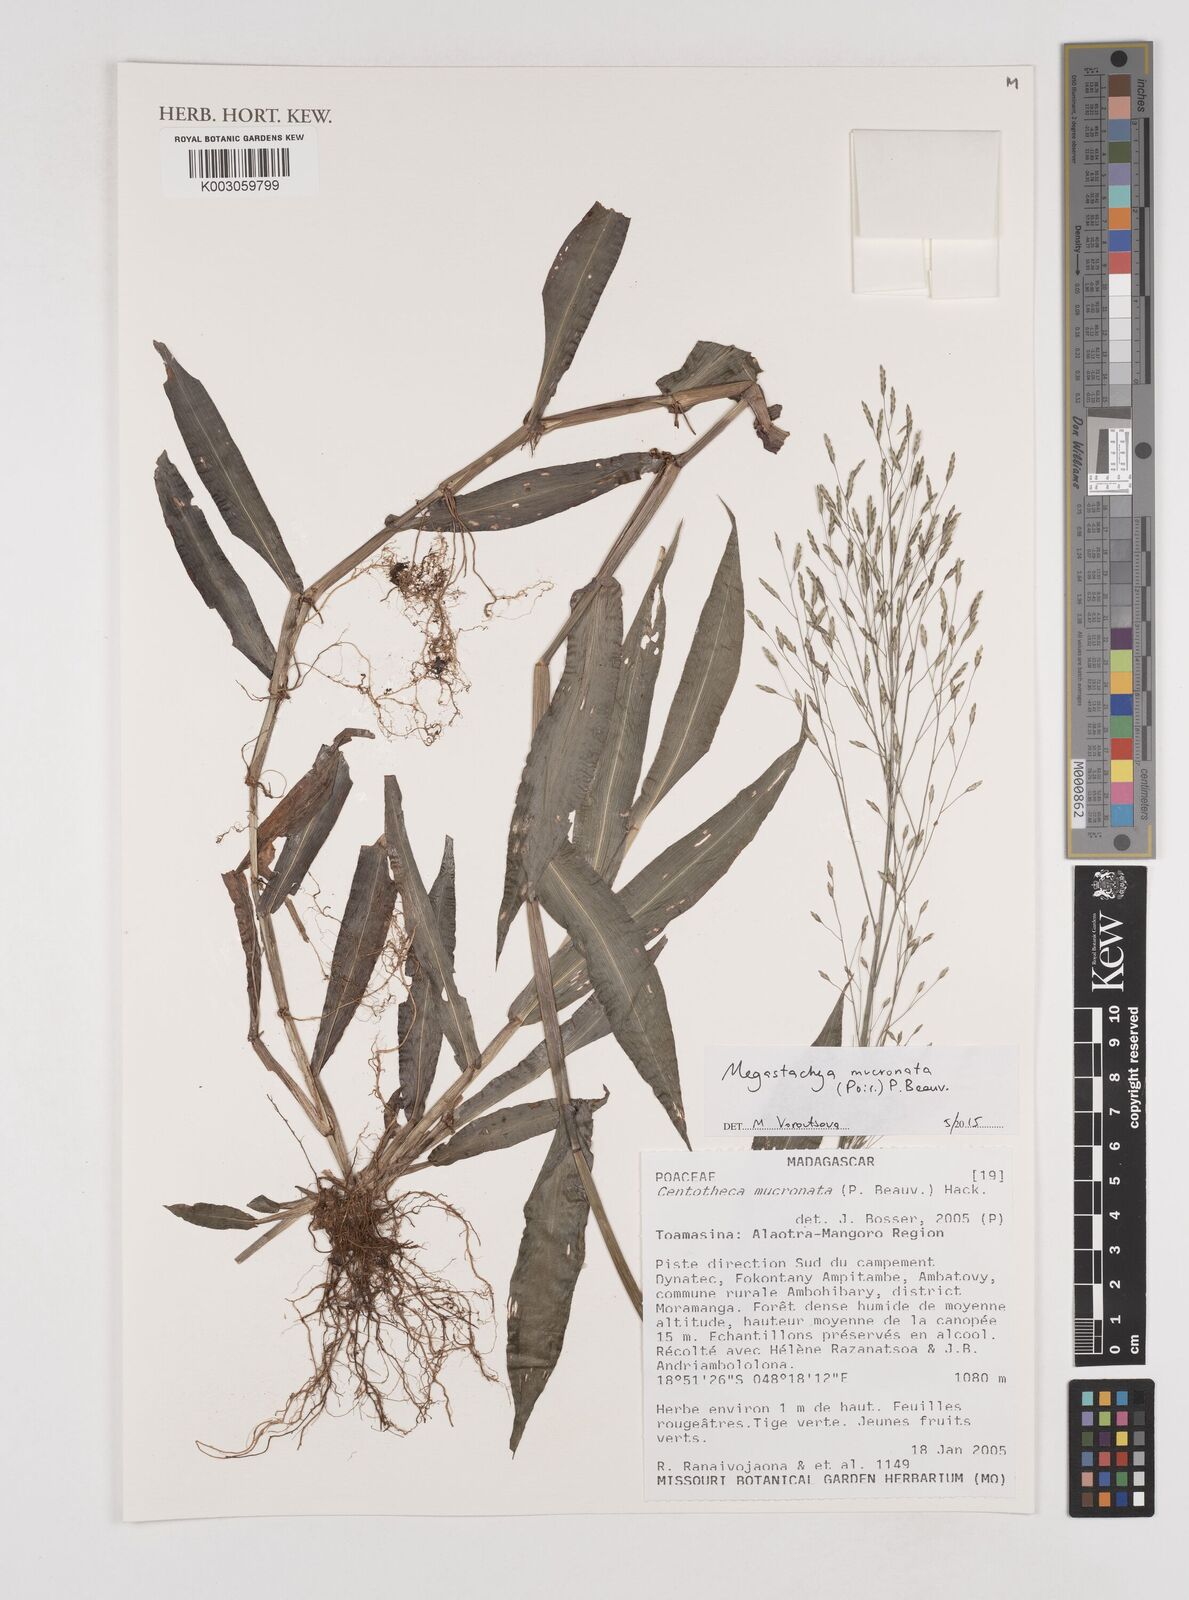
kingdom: Plantae
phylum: Tracheophyta
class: Liliopsida
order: Poales
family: Poaceae
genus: Megastachya
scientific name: Megastachya mucronata
